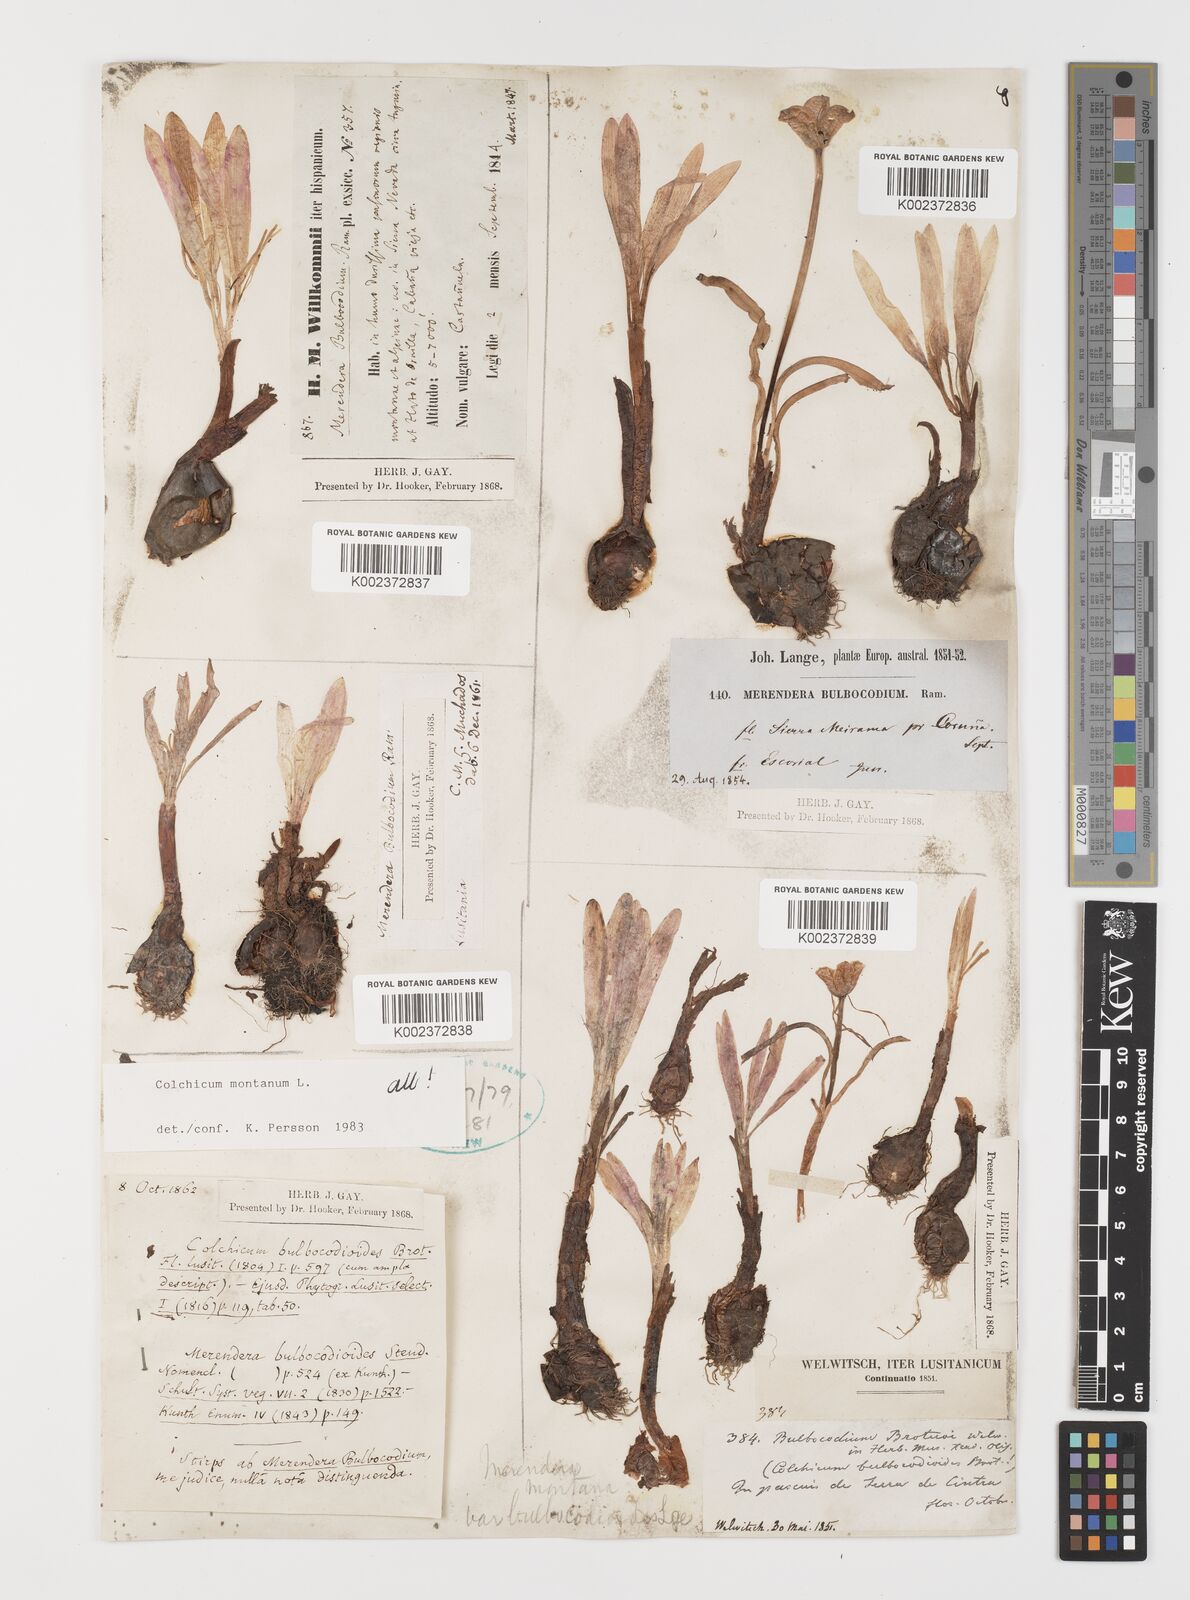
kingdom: Plantae
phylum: Tracheophyta
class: Liliopsida
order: Liliales
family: Colchicaceae
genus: Colchicum
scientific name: Colchicum montanum
